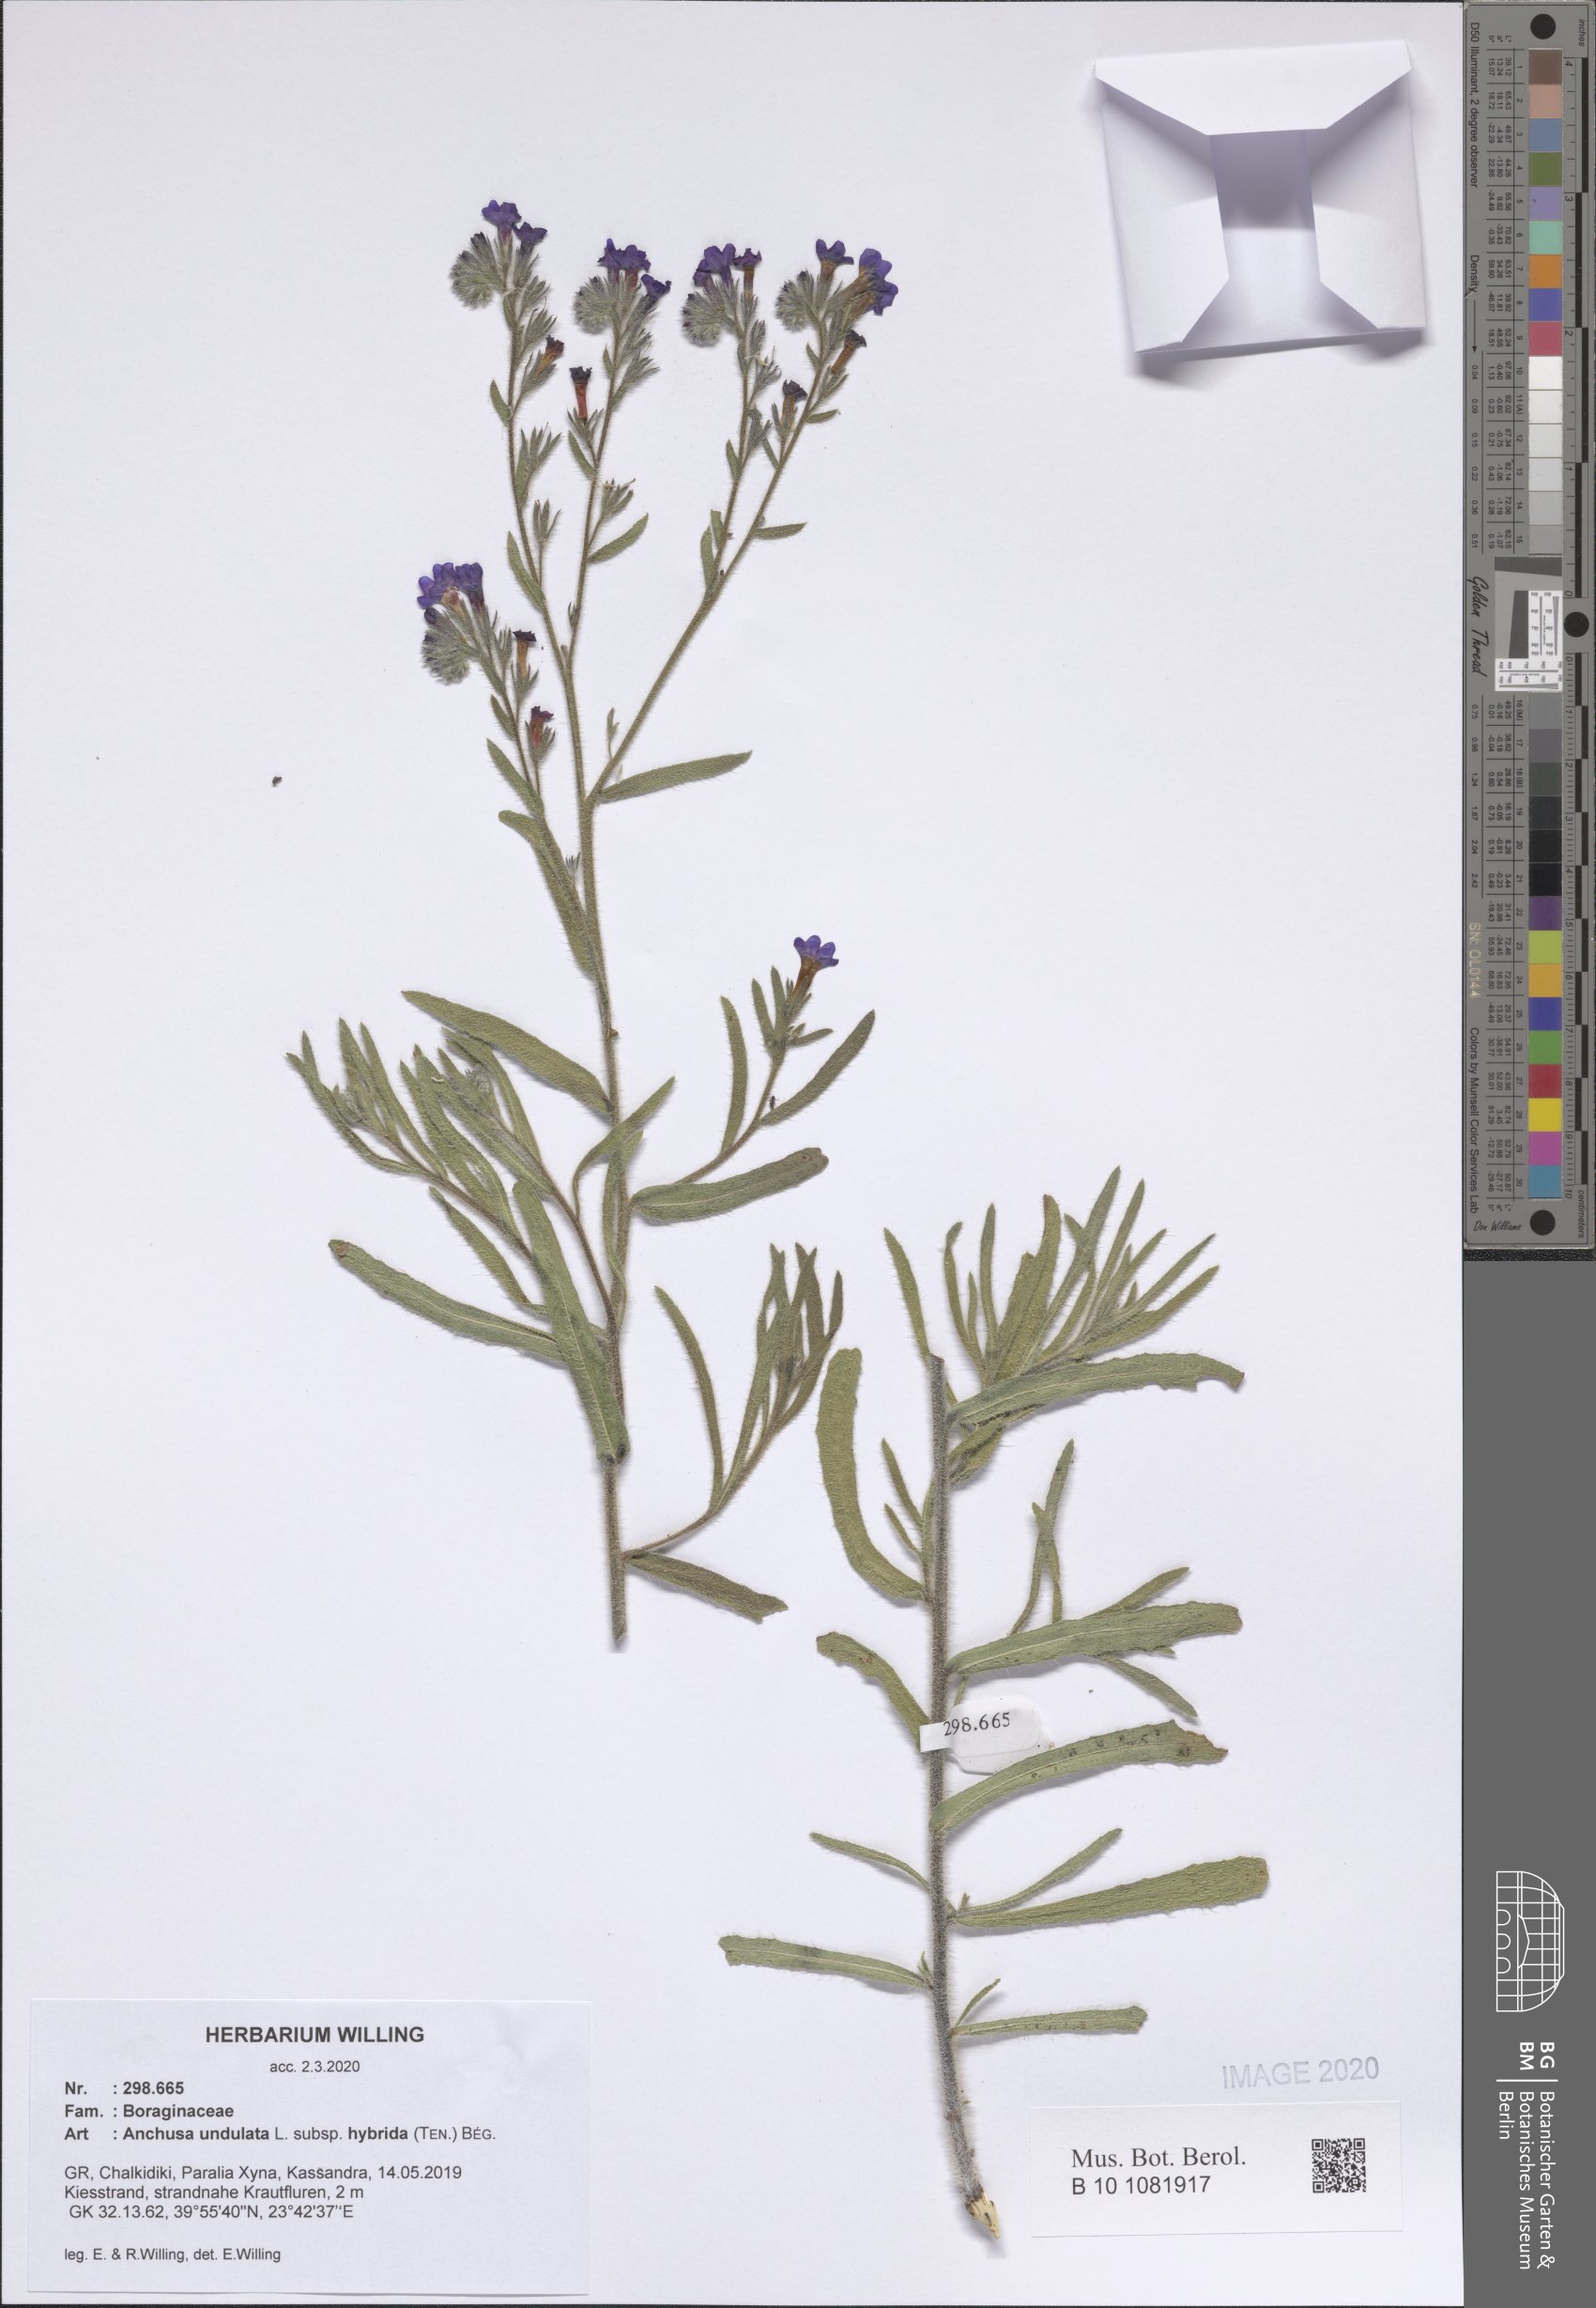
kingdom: Plantae
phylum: Tracheophyta
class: Magnoliopsida
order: Boraginales
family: Boraginaceae
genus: Anchusa
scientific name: Anchusa undulata
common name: Undulate alkanet
